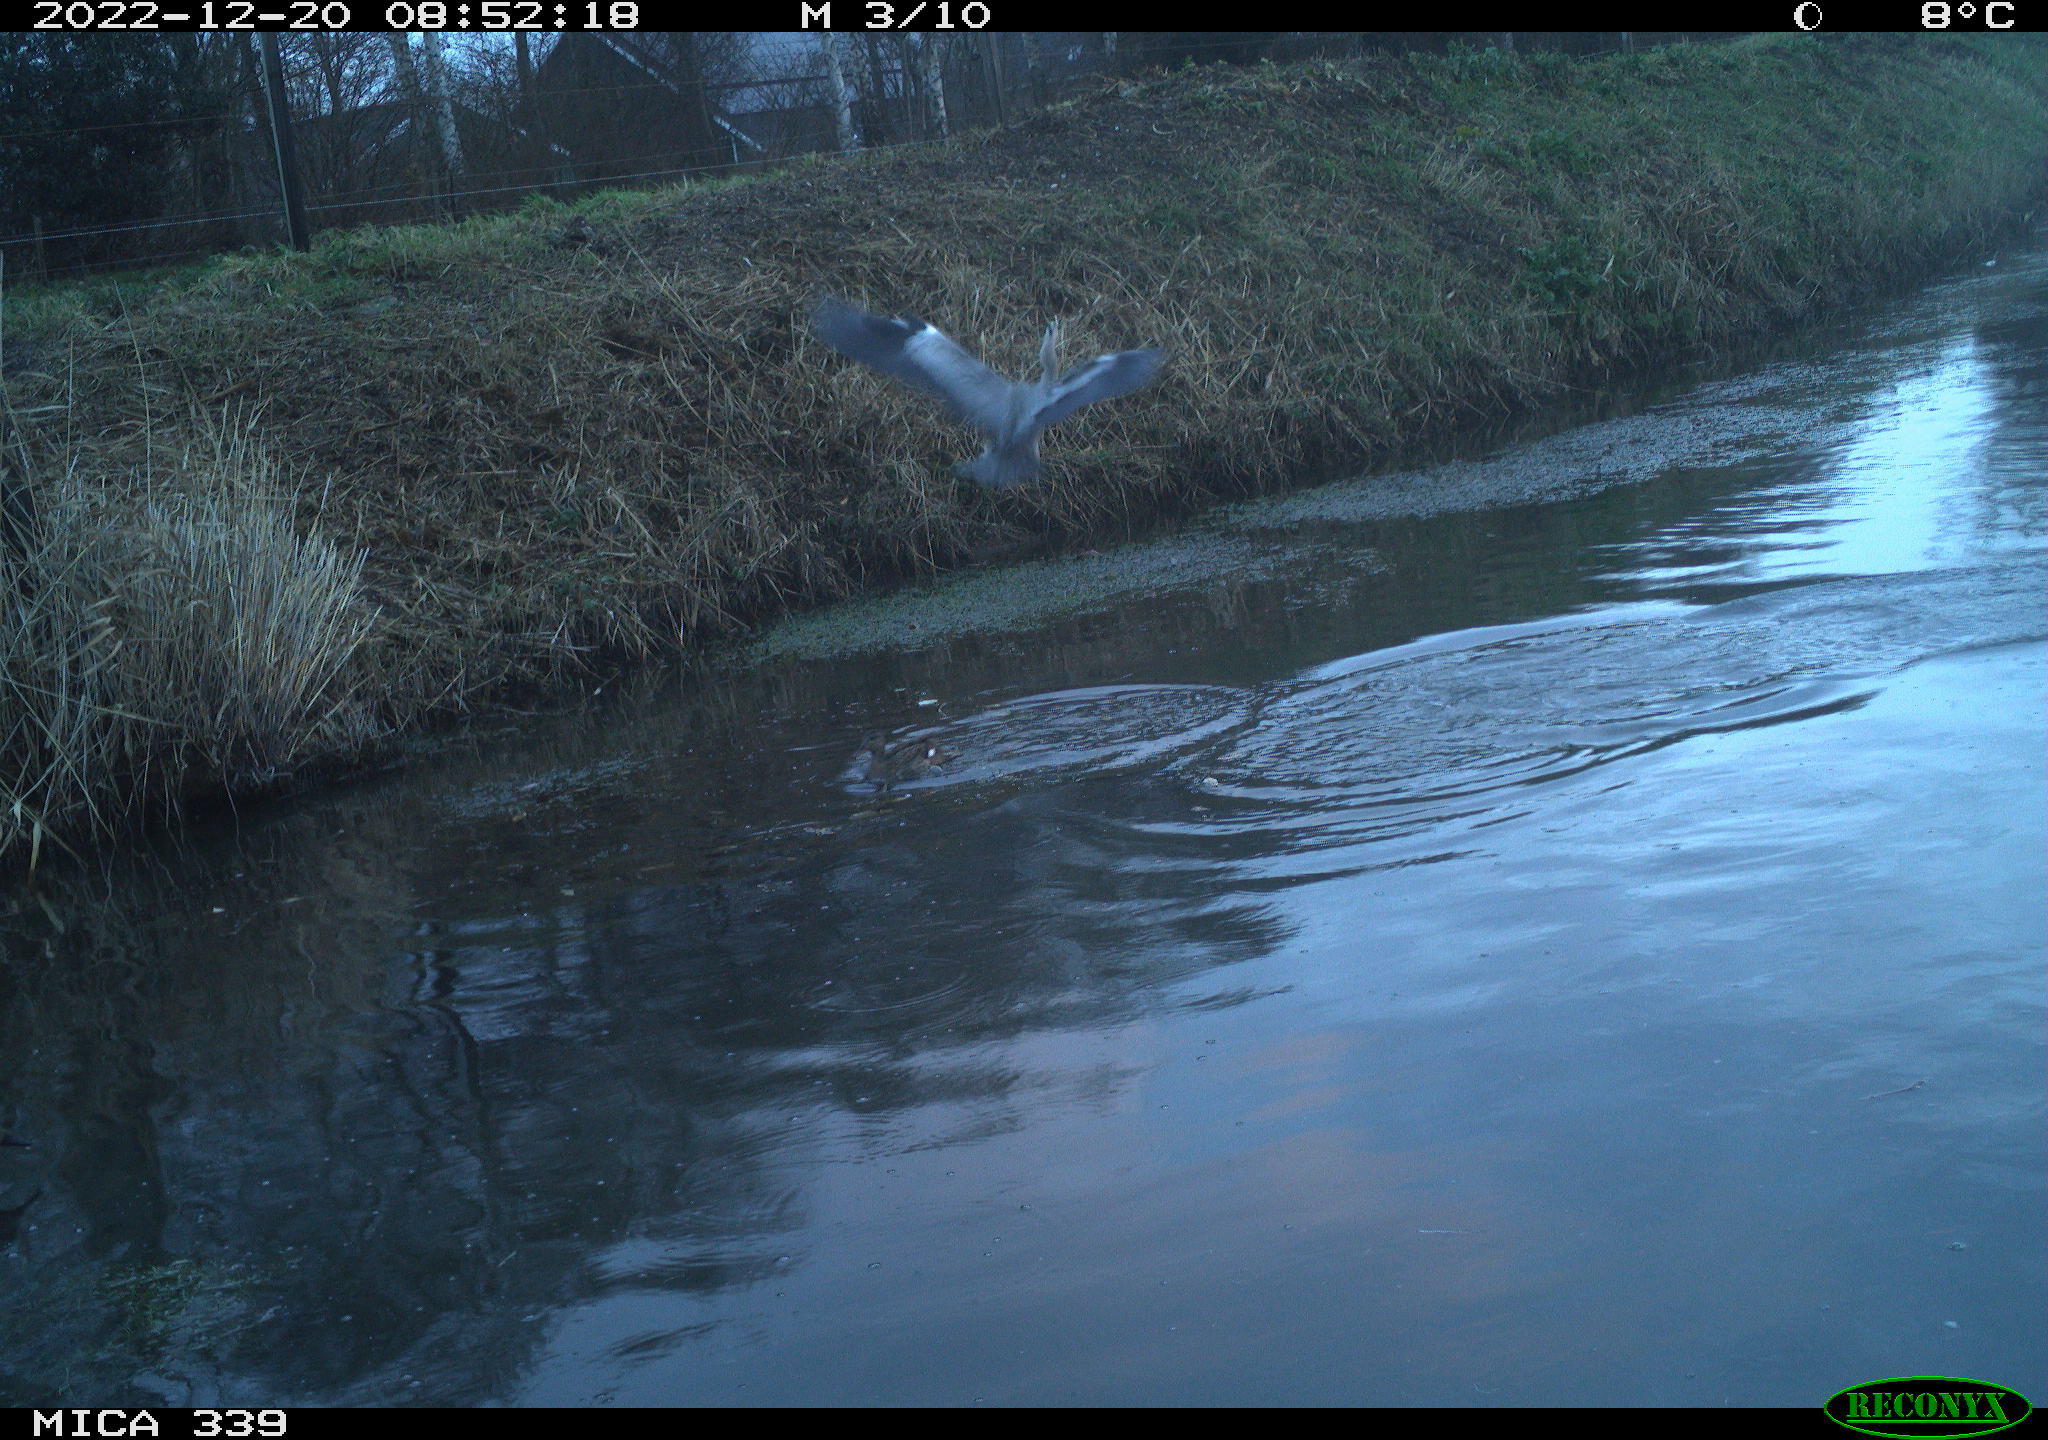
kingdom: Animalia
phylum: Chordata
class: Aves
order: Pelecaniformes
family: Ardeidae
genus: Ardea
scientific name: Ardea cinerea
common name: Grey heron
